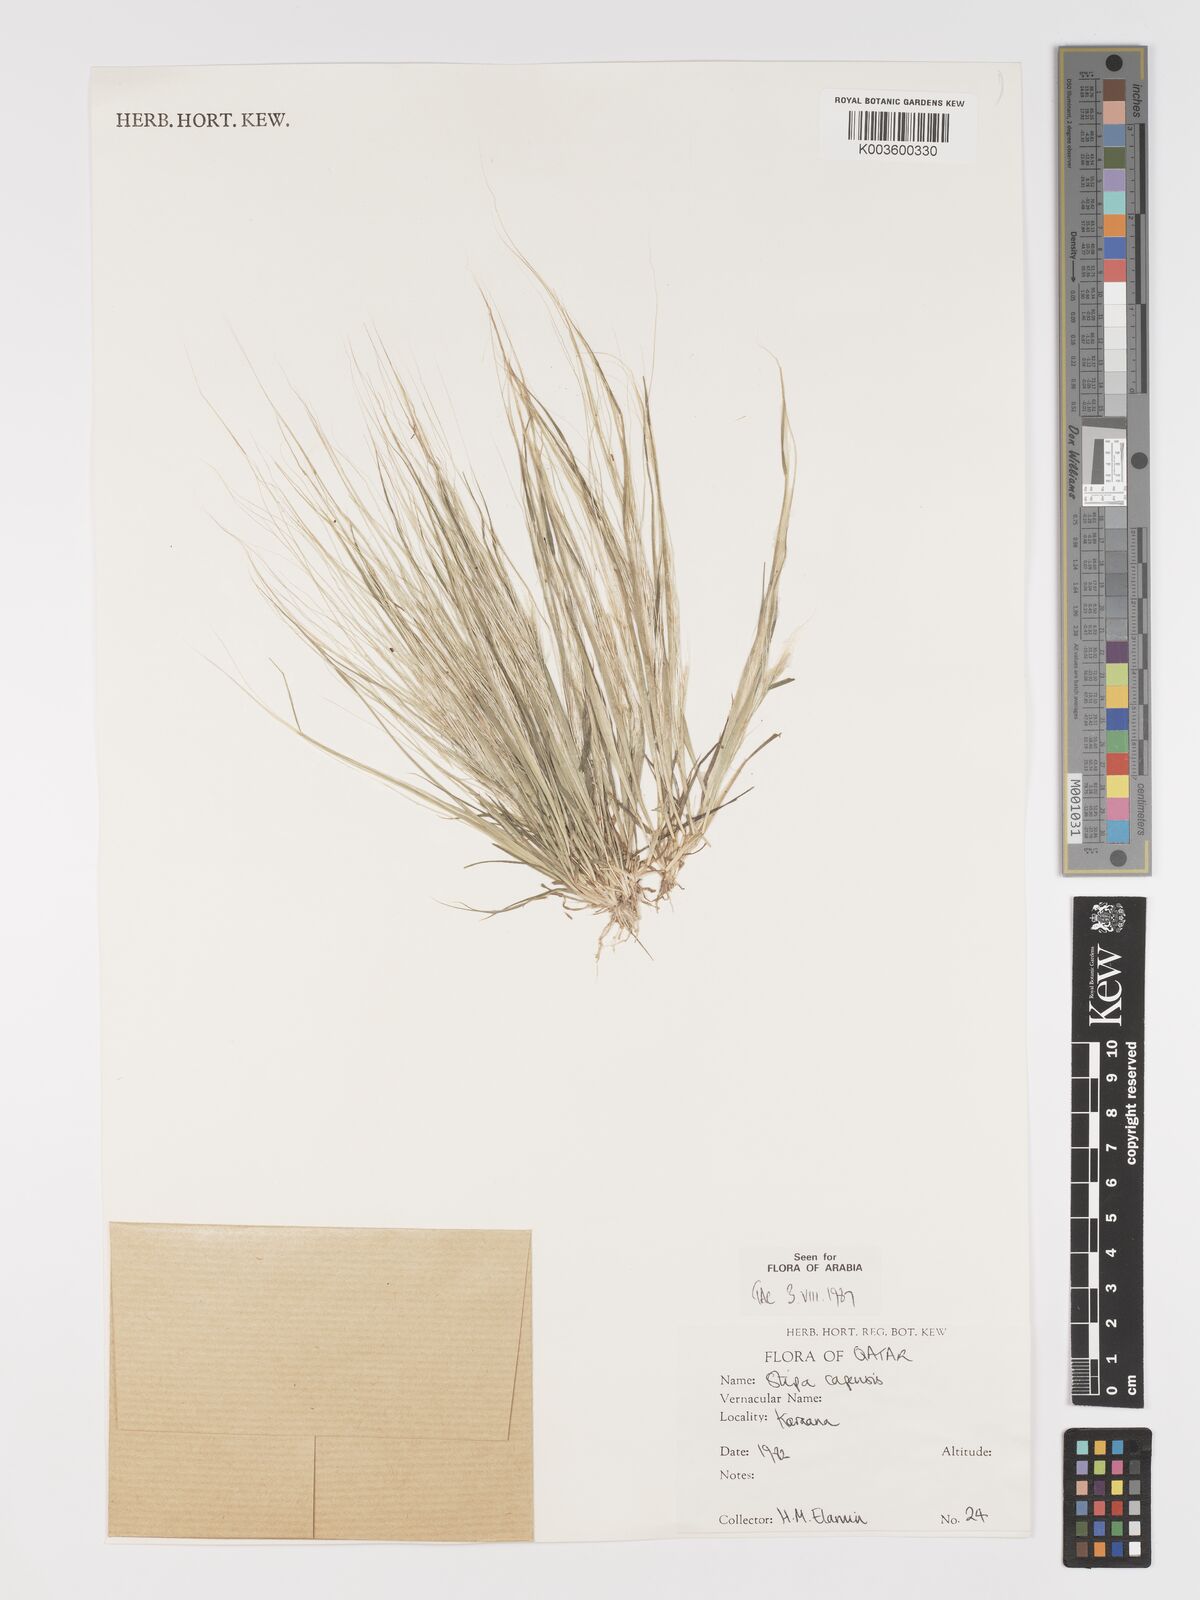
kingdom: Plantae
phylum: Tracheophyta
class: Liliopsida
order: Poales
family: Poaceae
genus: Stipellula
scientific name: Stipellula capensis
